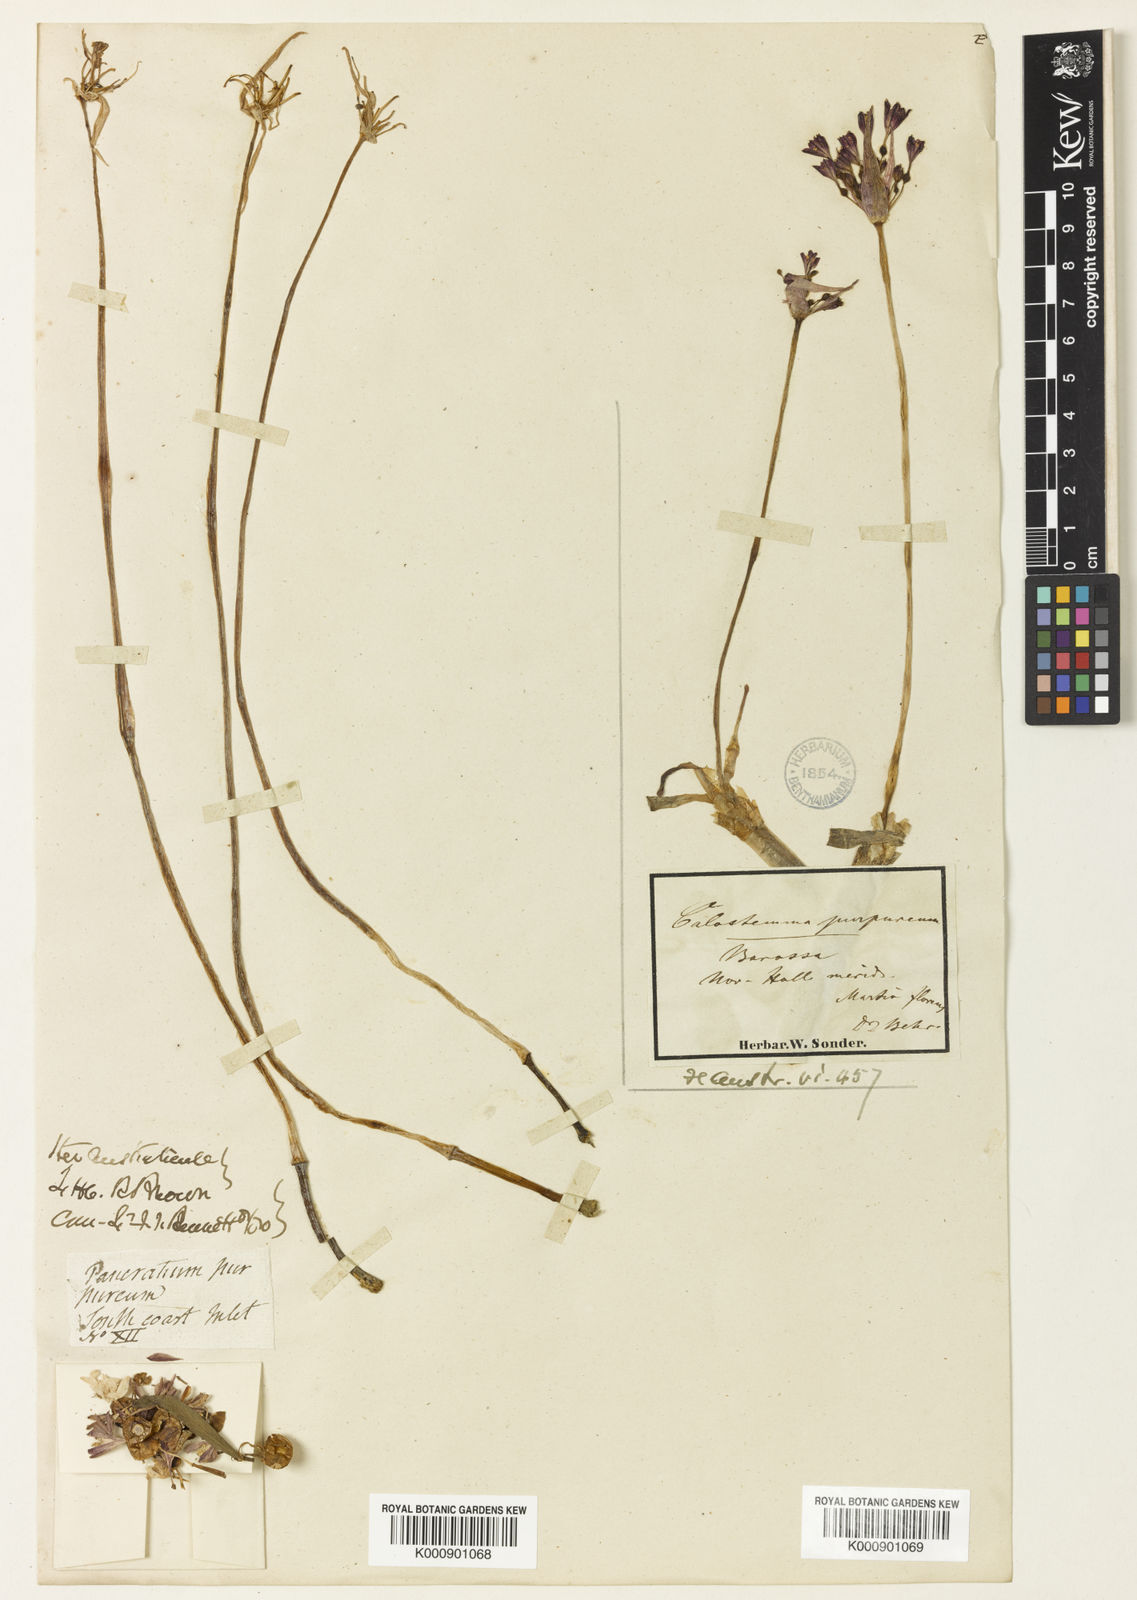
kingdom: Plantae
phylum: Tracheophyta
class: Liliopsida
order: Asparagales
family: Amaryllidaceae
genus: Calostemma
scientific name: Calostemma purpureum
